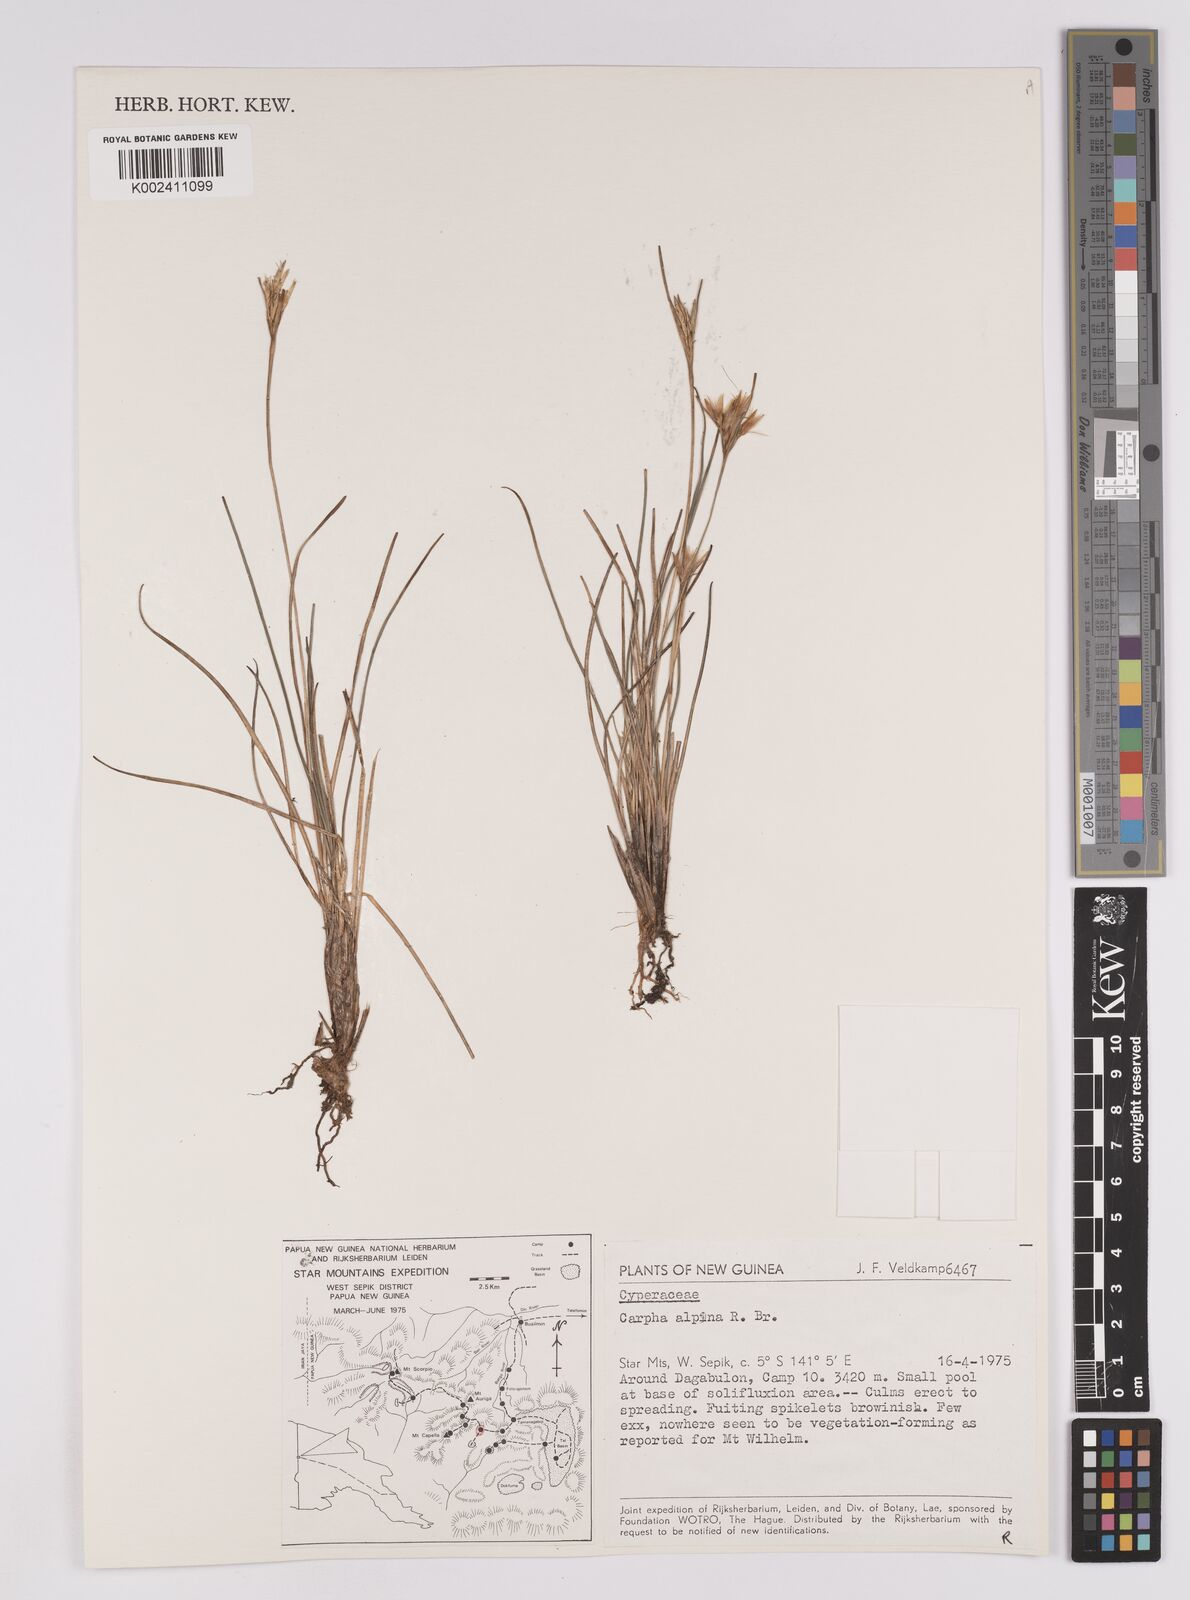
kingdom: Plantae
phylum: Tracheophyta
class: Liliopsida
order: Poales
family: Cyperaceae
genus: Carpha
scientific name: Carpha alpina
